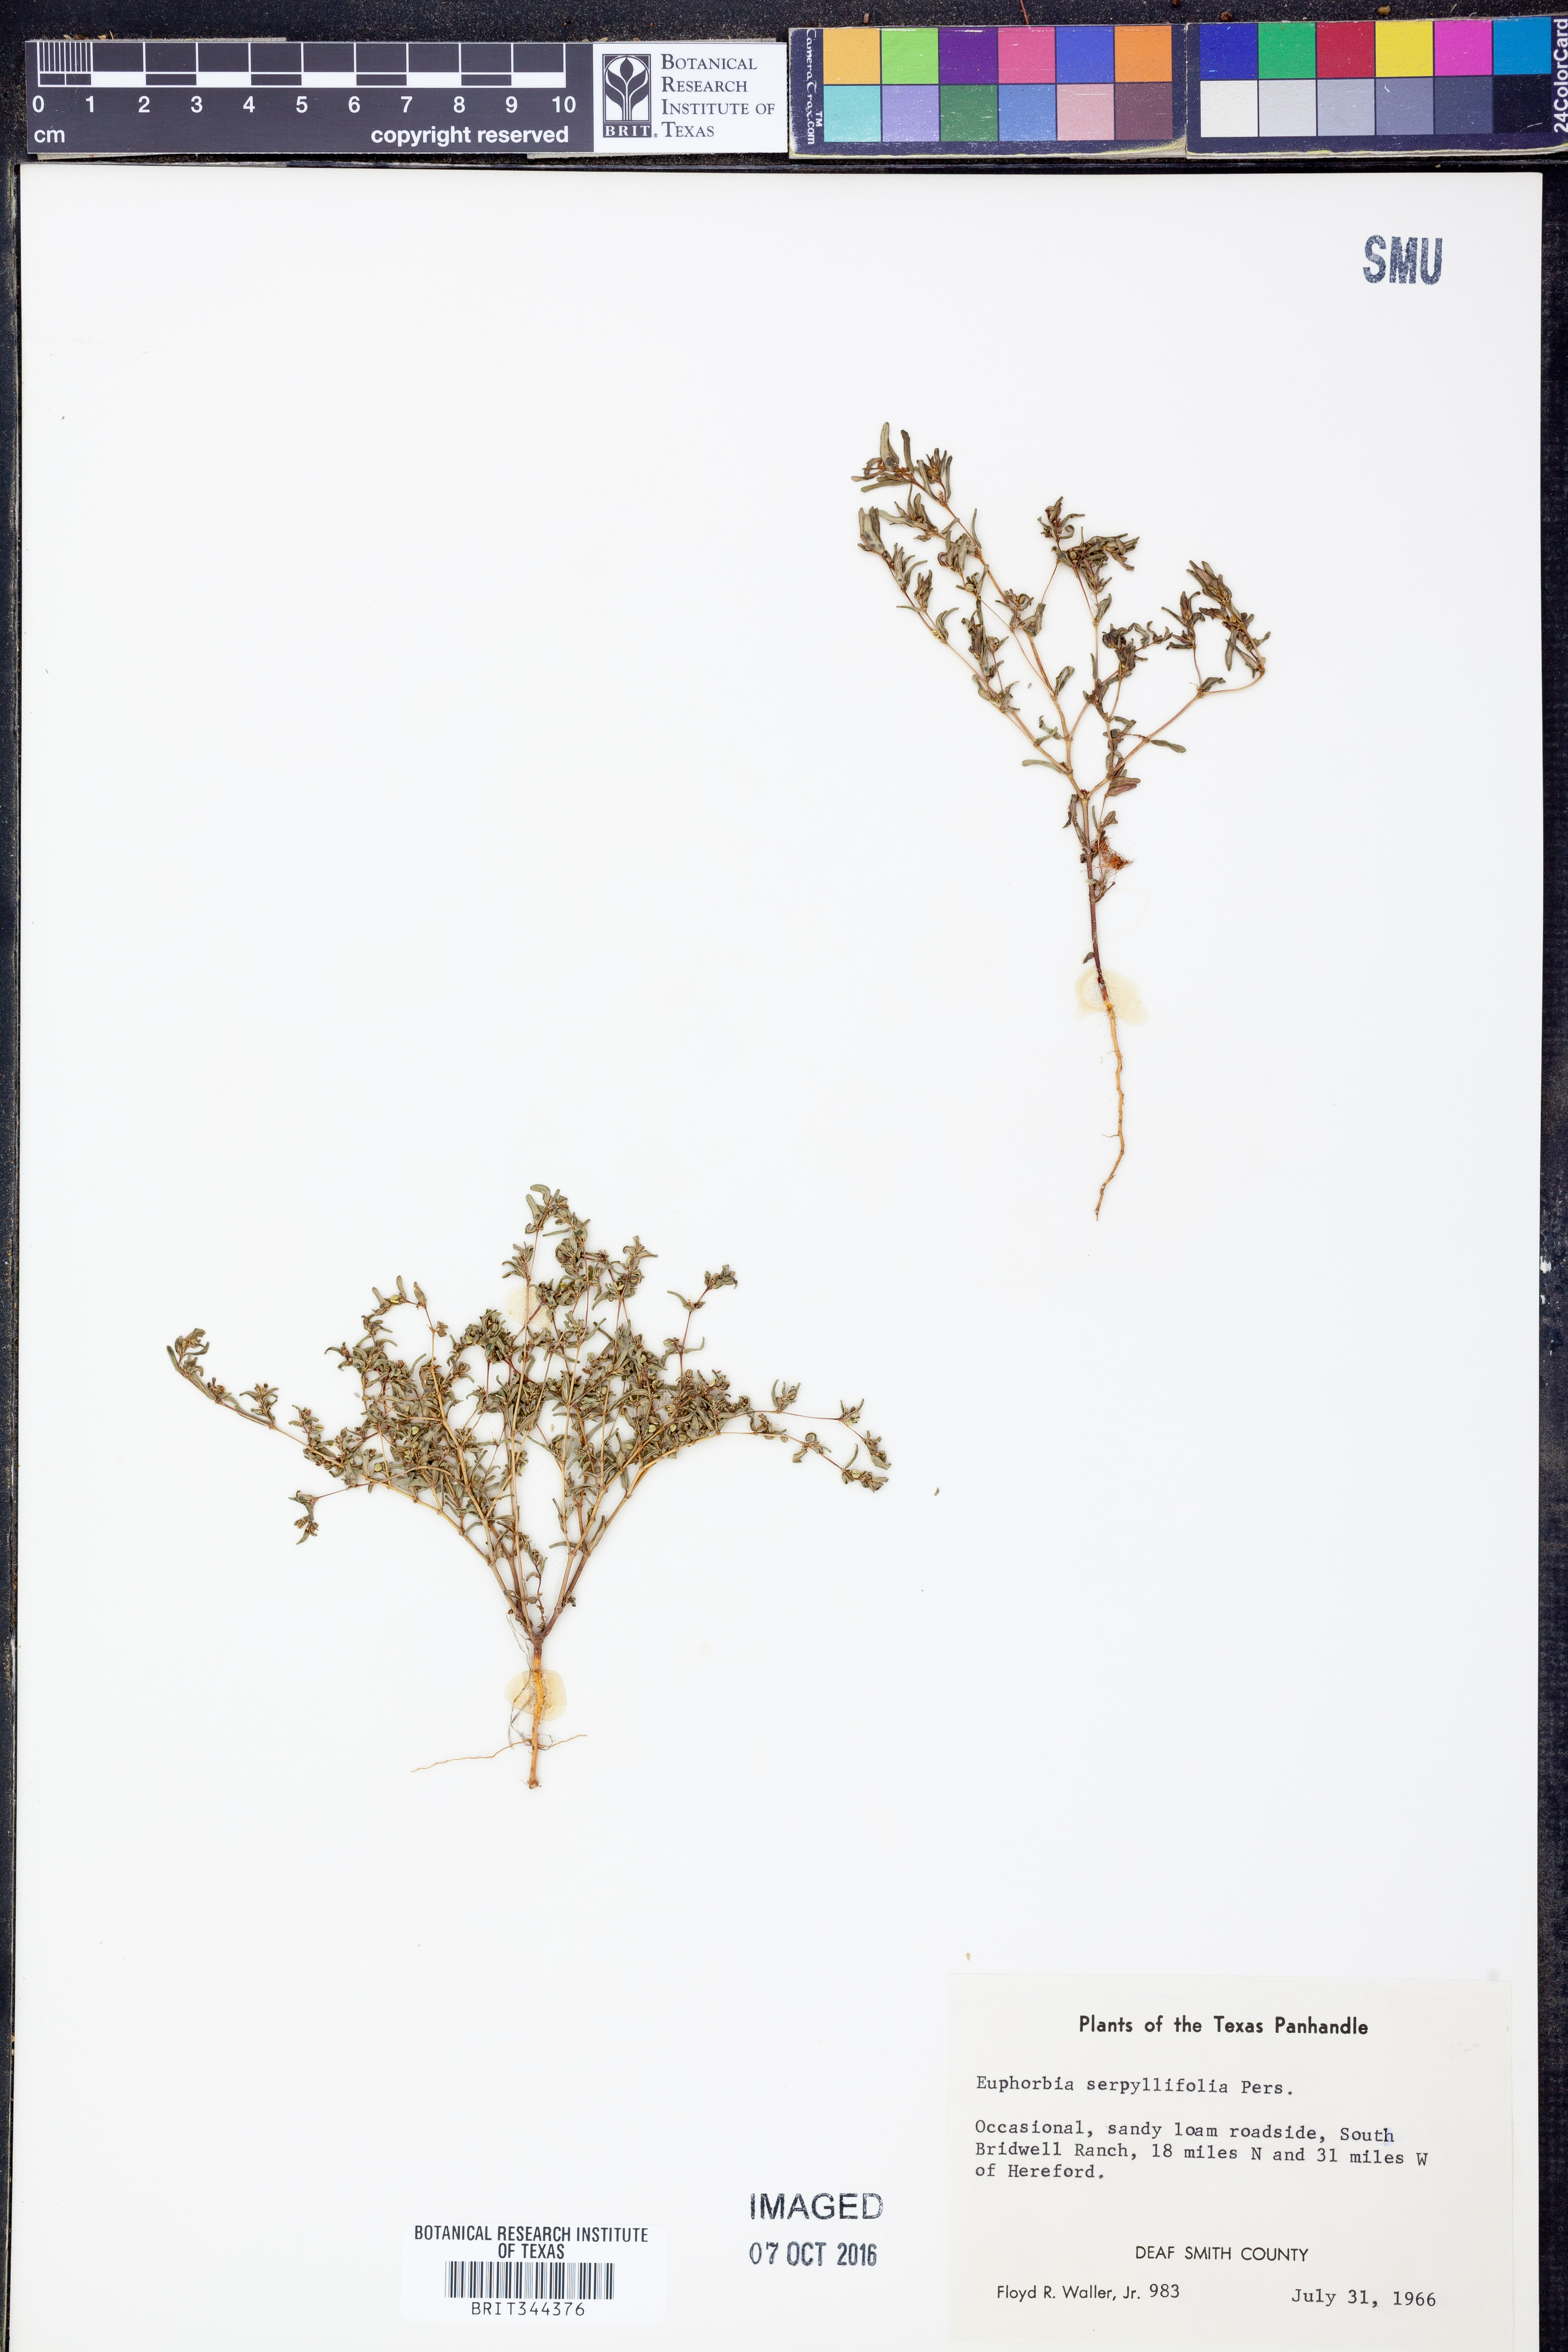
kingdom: Plantae
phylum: Tracheophyta
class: Magnoliopsida
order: Malpighiales
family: Euphorbiaceae
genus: Euphorbia
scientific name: Euphorbia serpillifolia
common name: Thyme-leaf spurge
